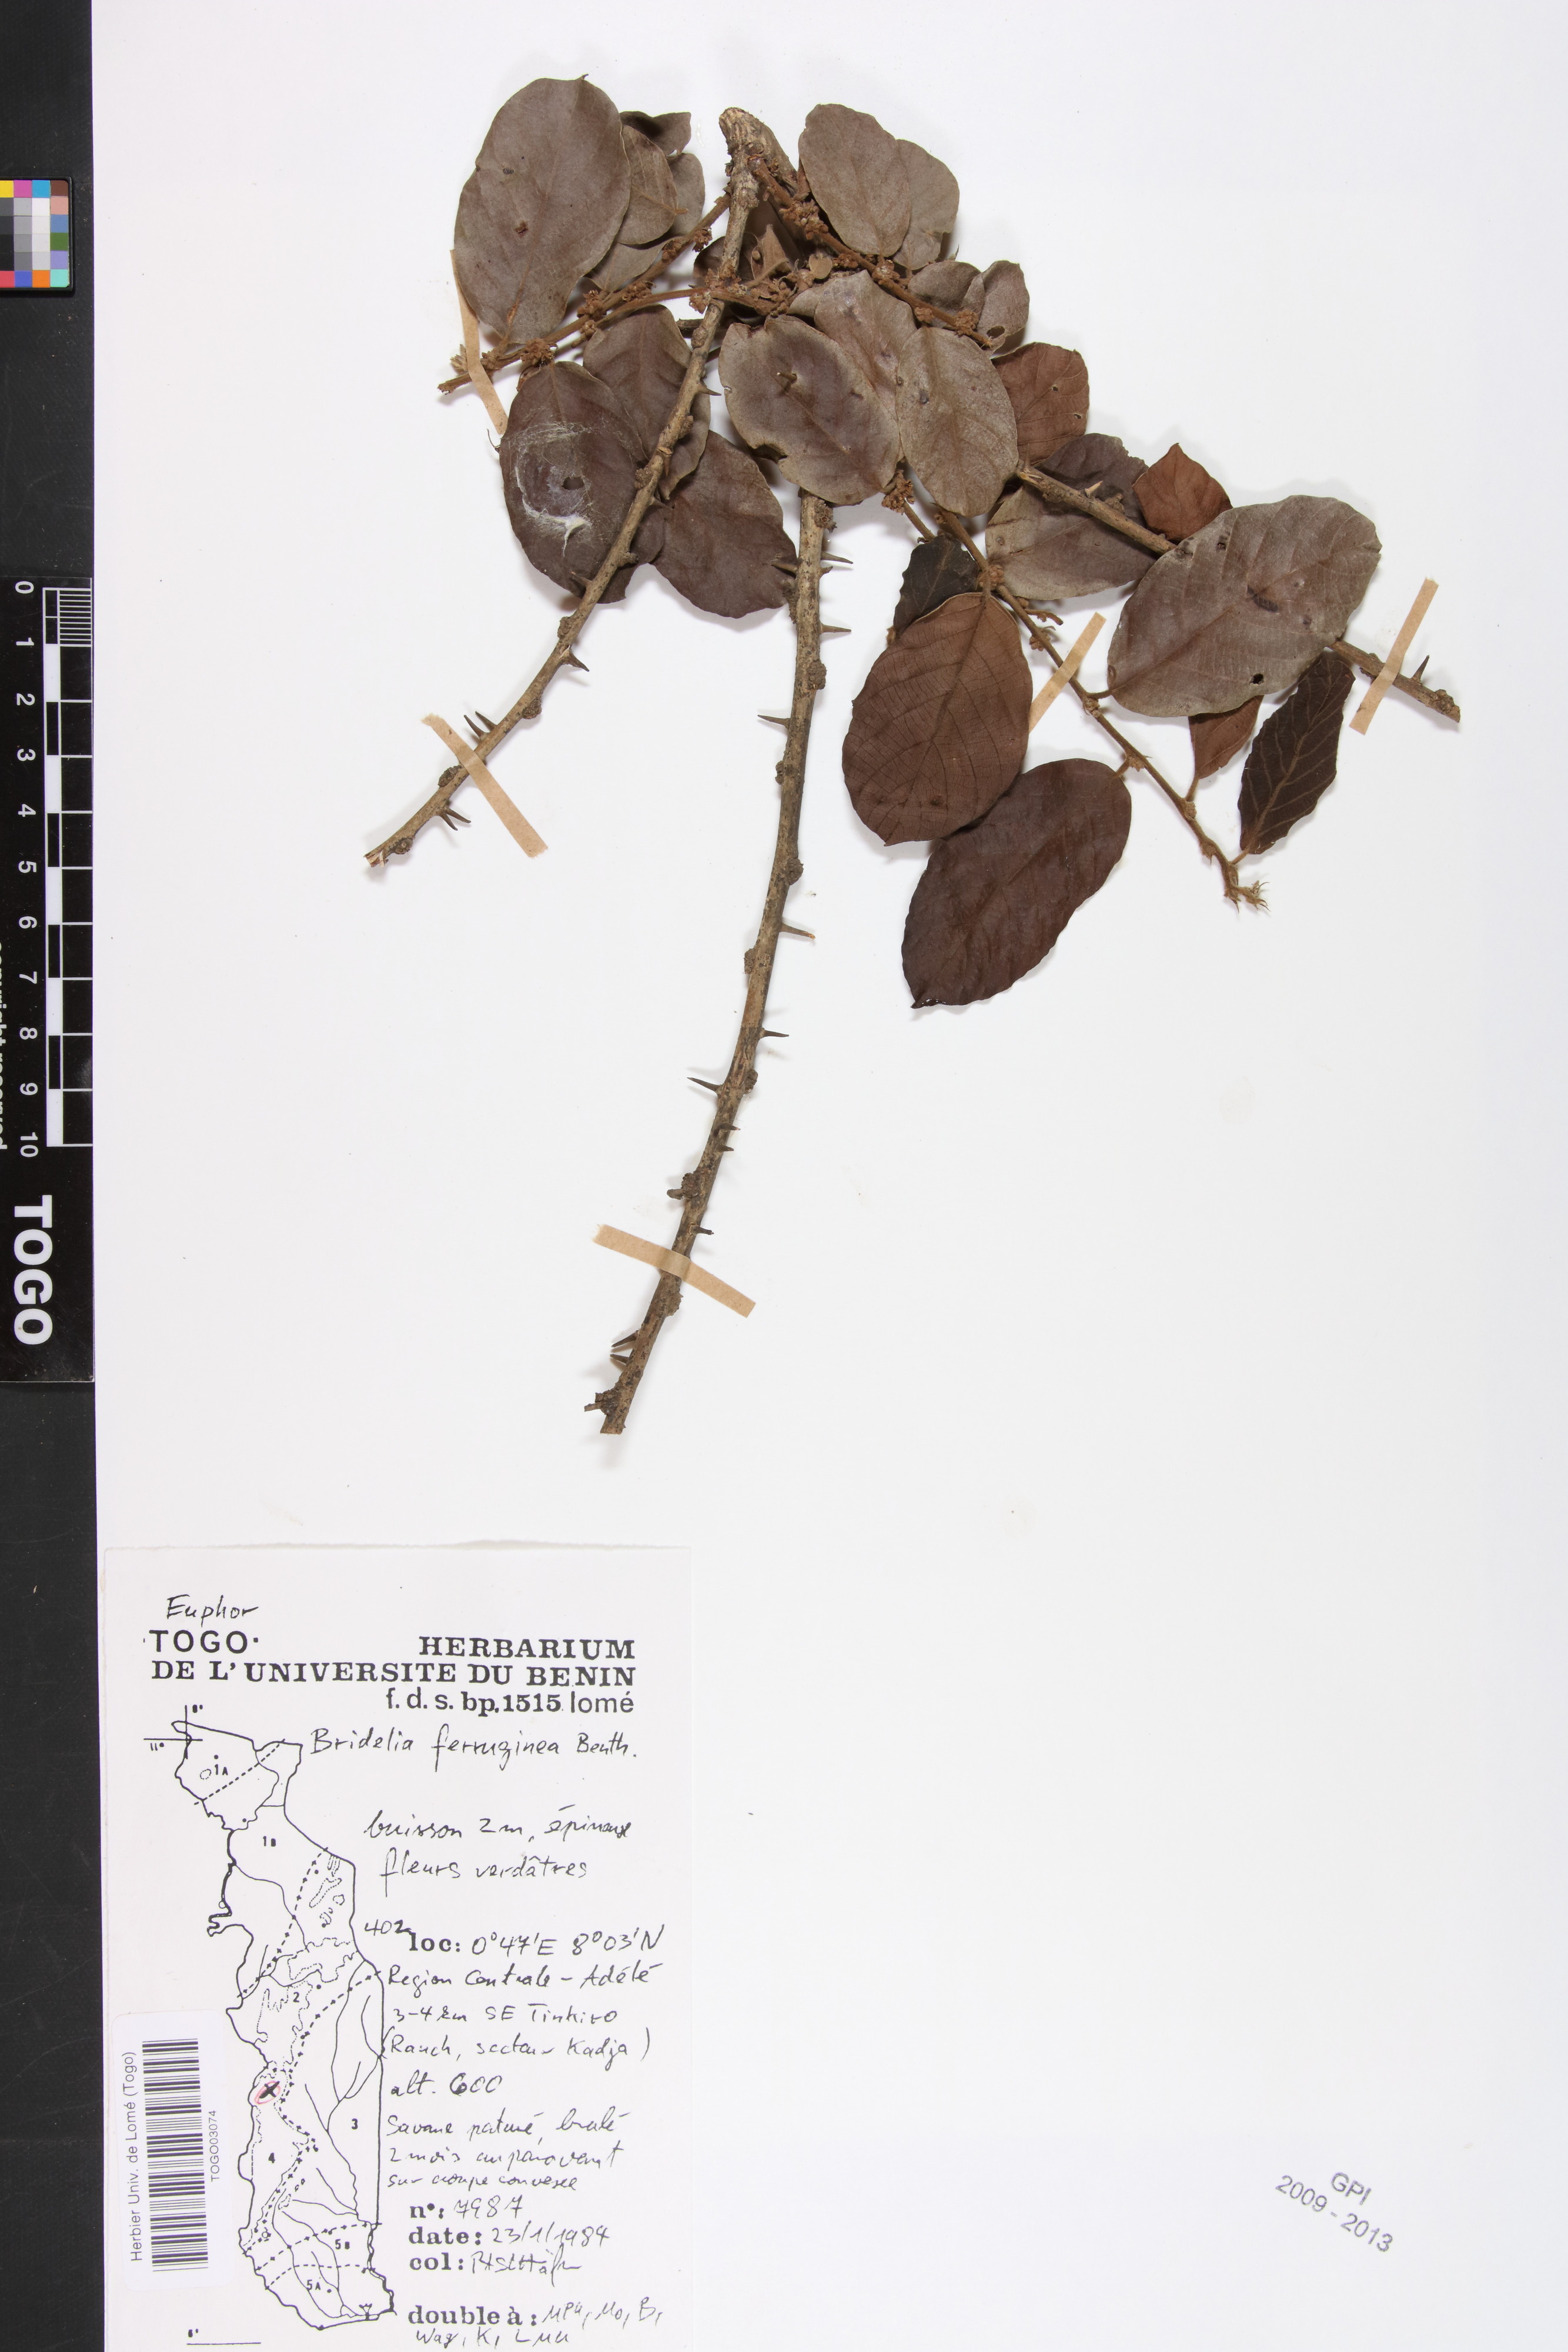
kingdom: Plantae
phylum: Tracheophyta
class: Magnoliopsida
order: Malpighiales
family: Phyllanthaceae
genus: Bridelia
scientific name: Bridelia ferruginea
